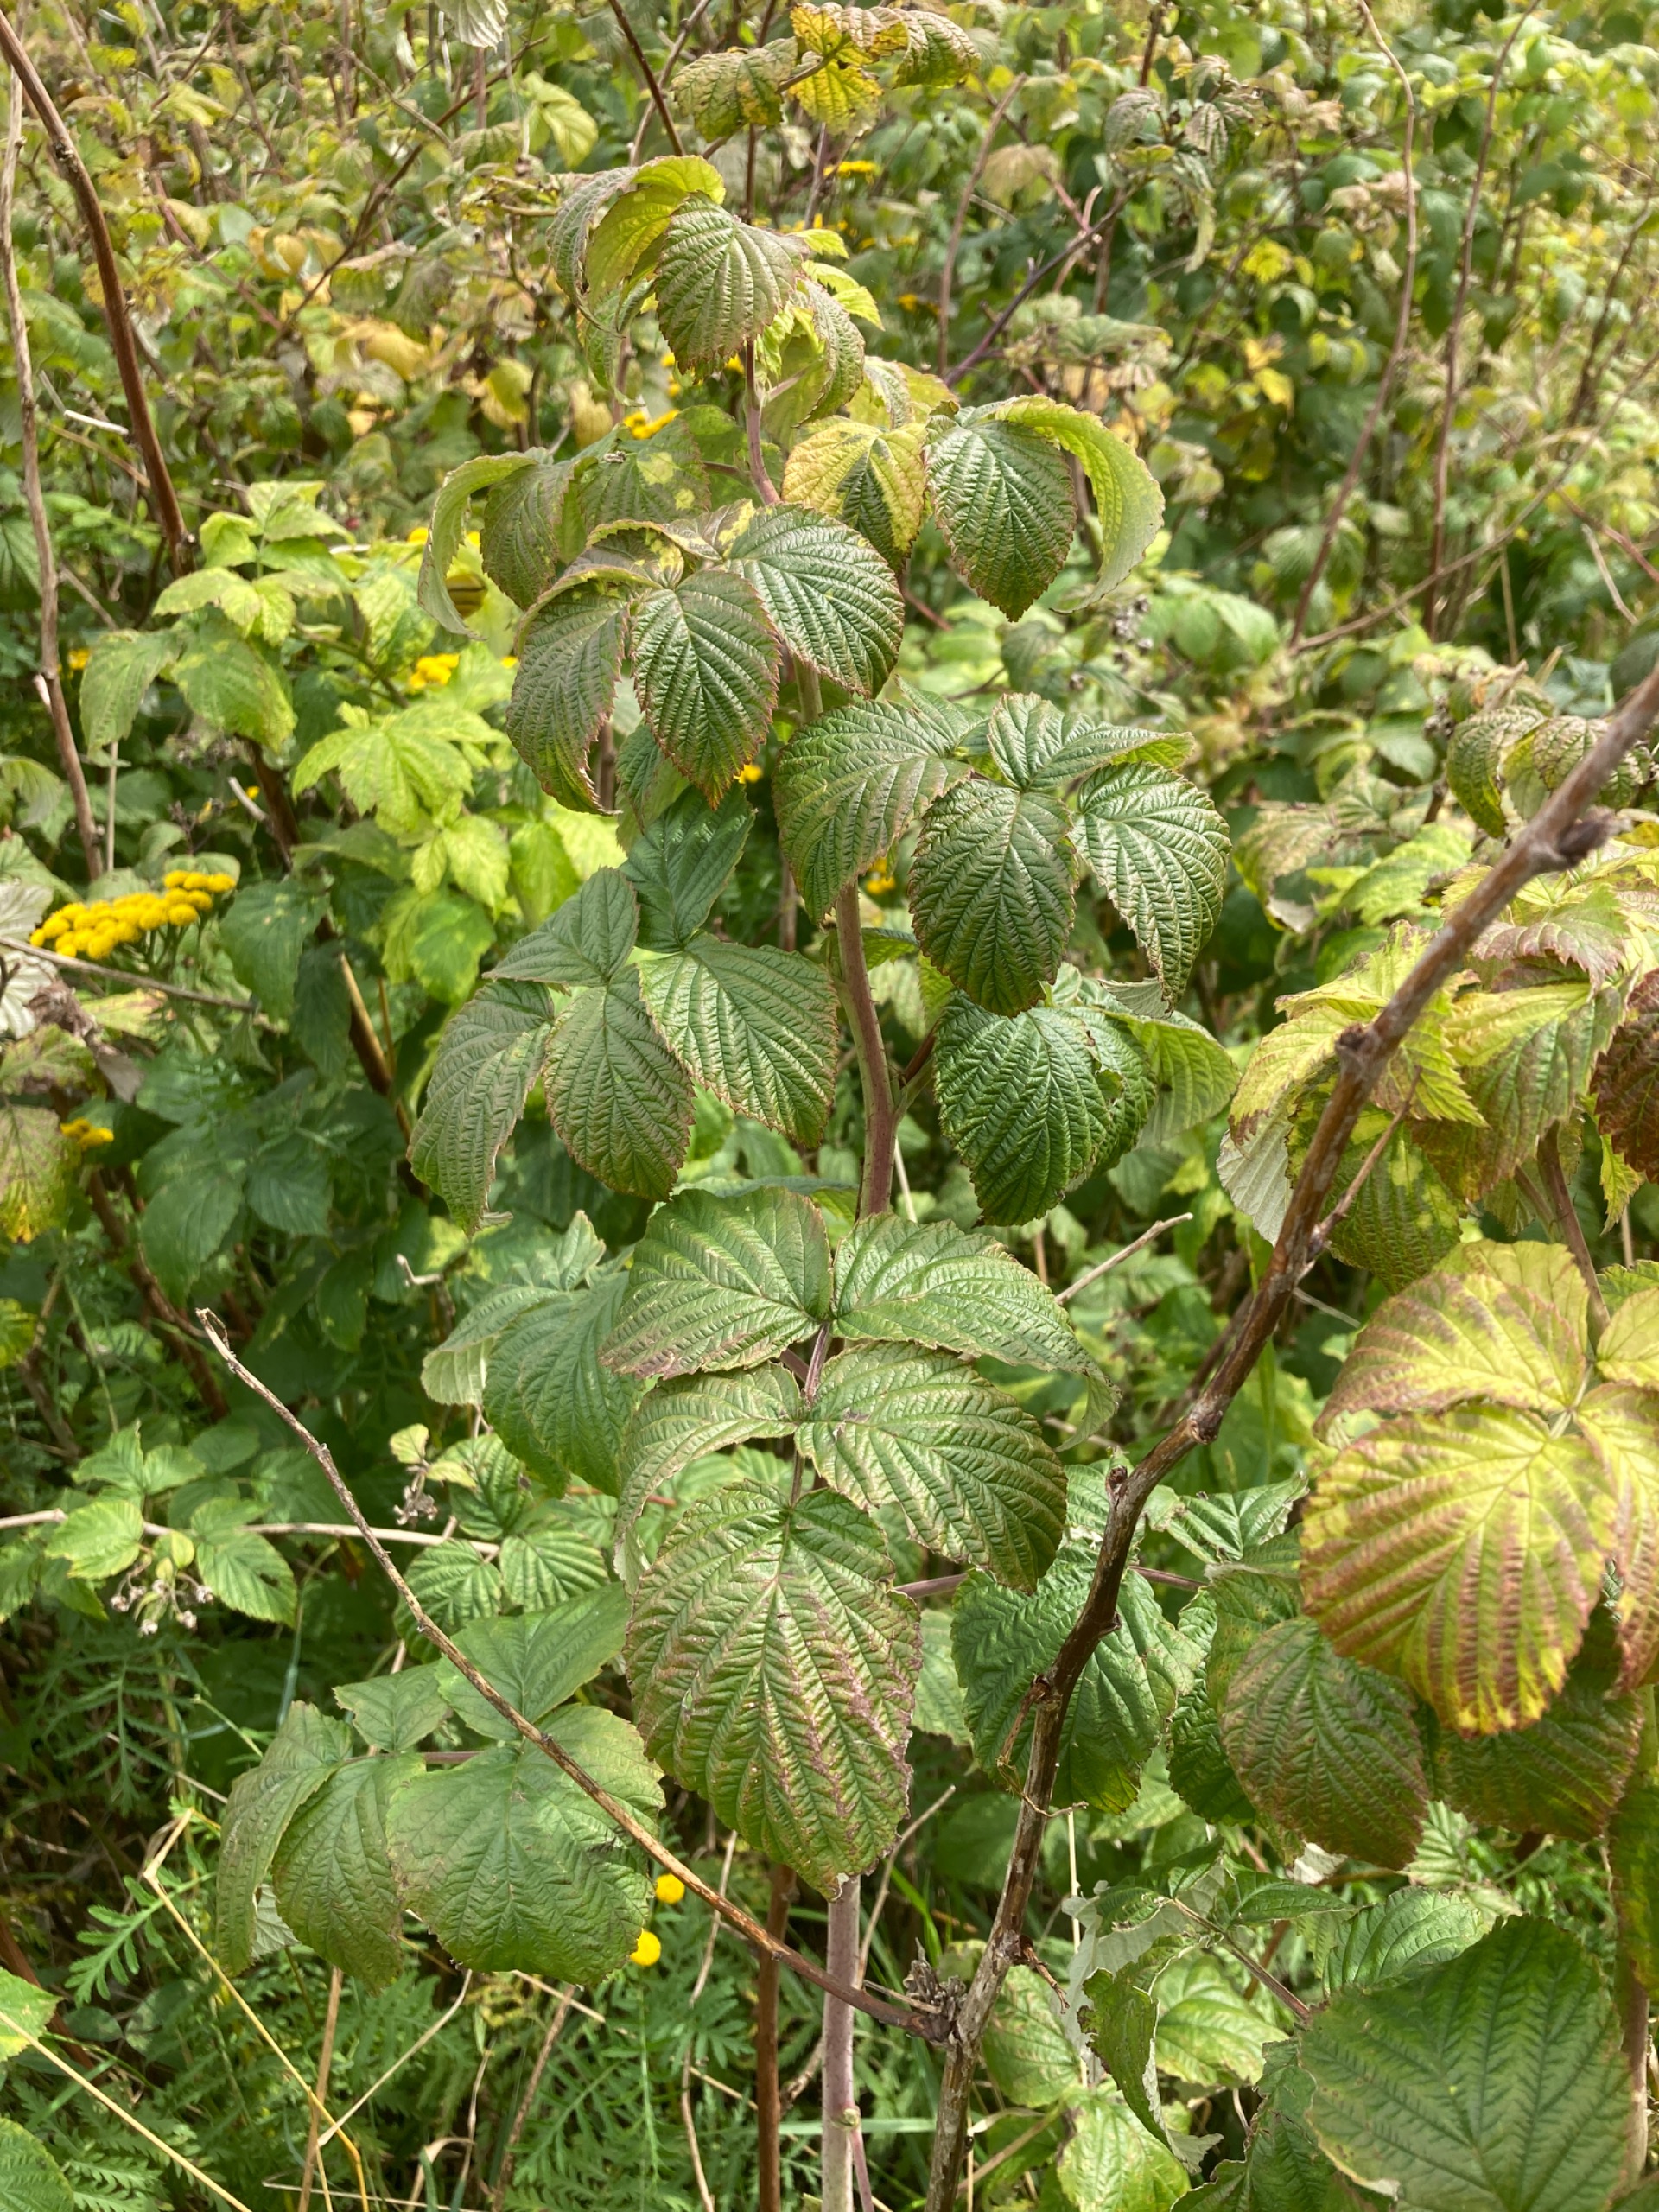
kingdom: Plantae
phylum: Tracheophyta
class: Magnoliopsida
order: Rosales
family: Rosaceae
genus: Rubus
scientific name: Rubus idaeus
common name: Hindbær
